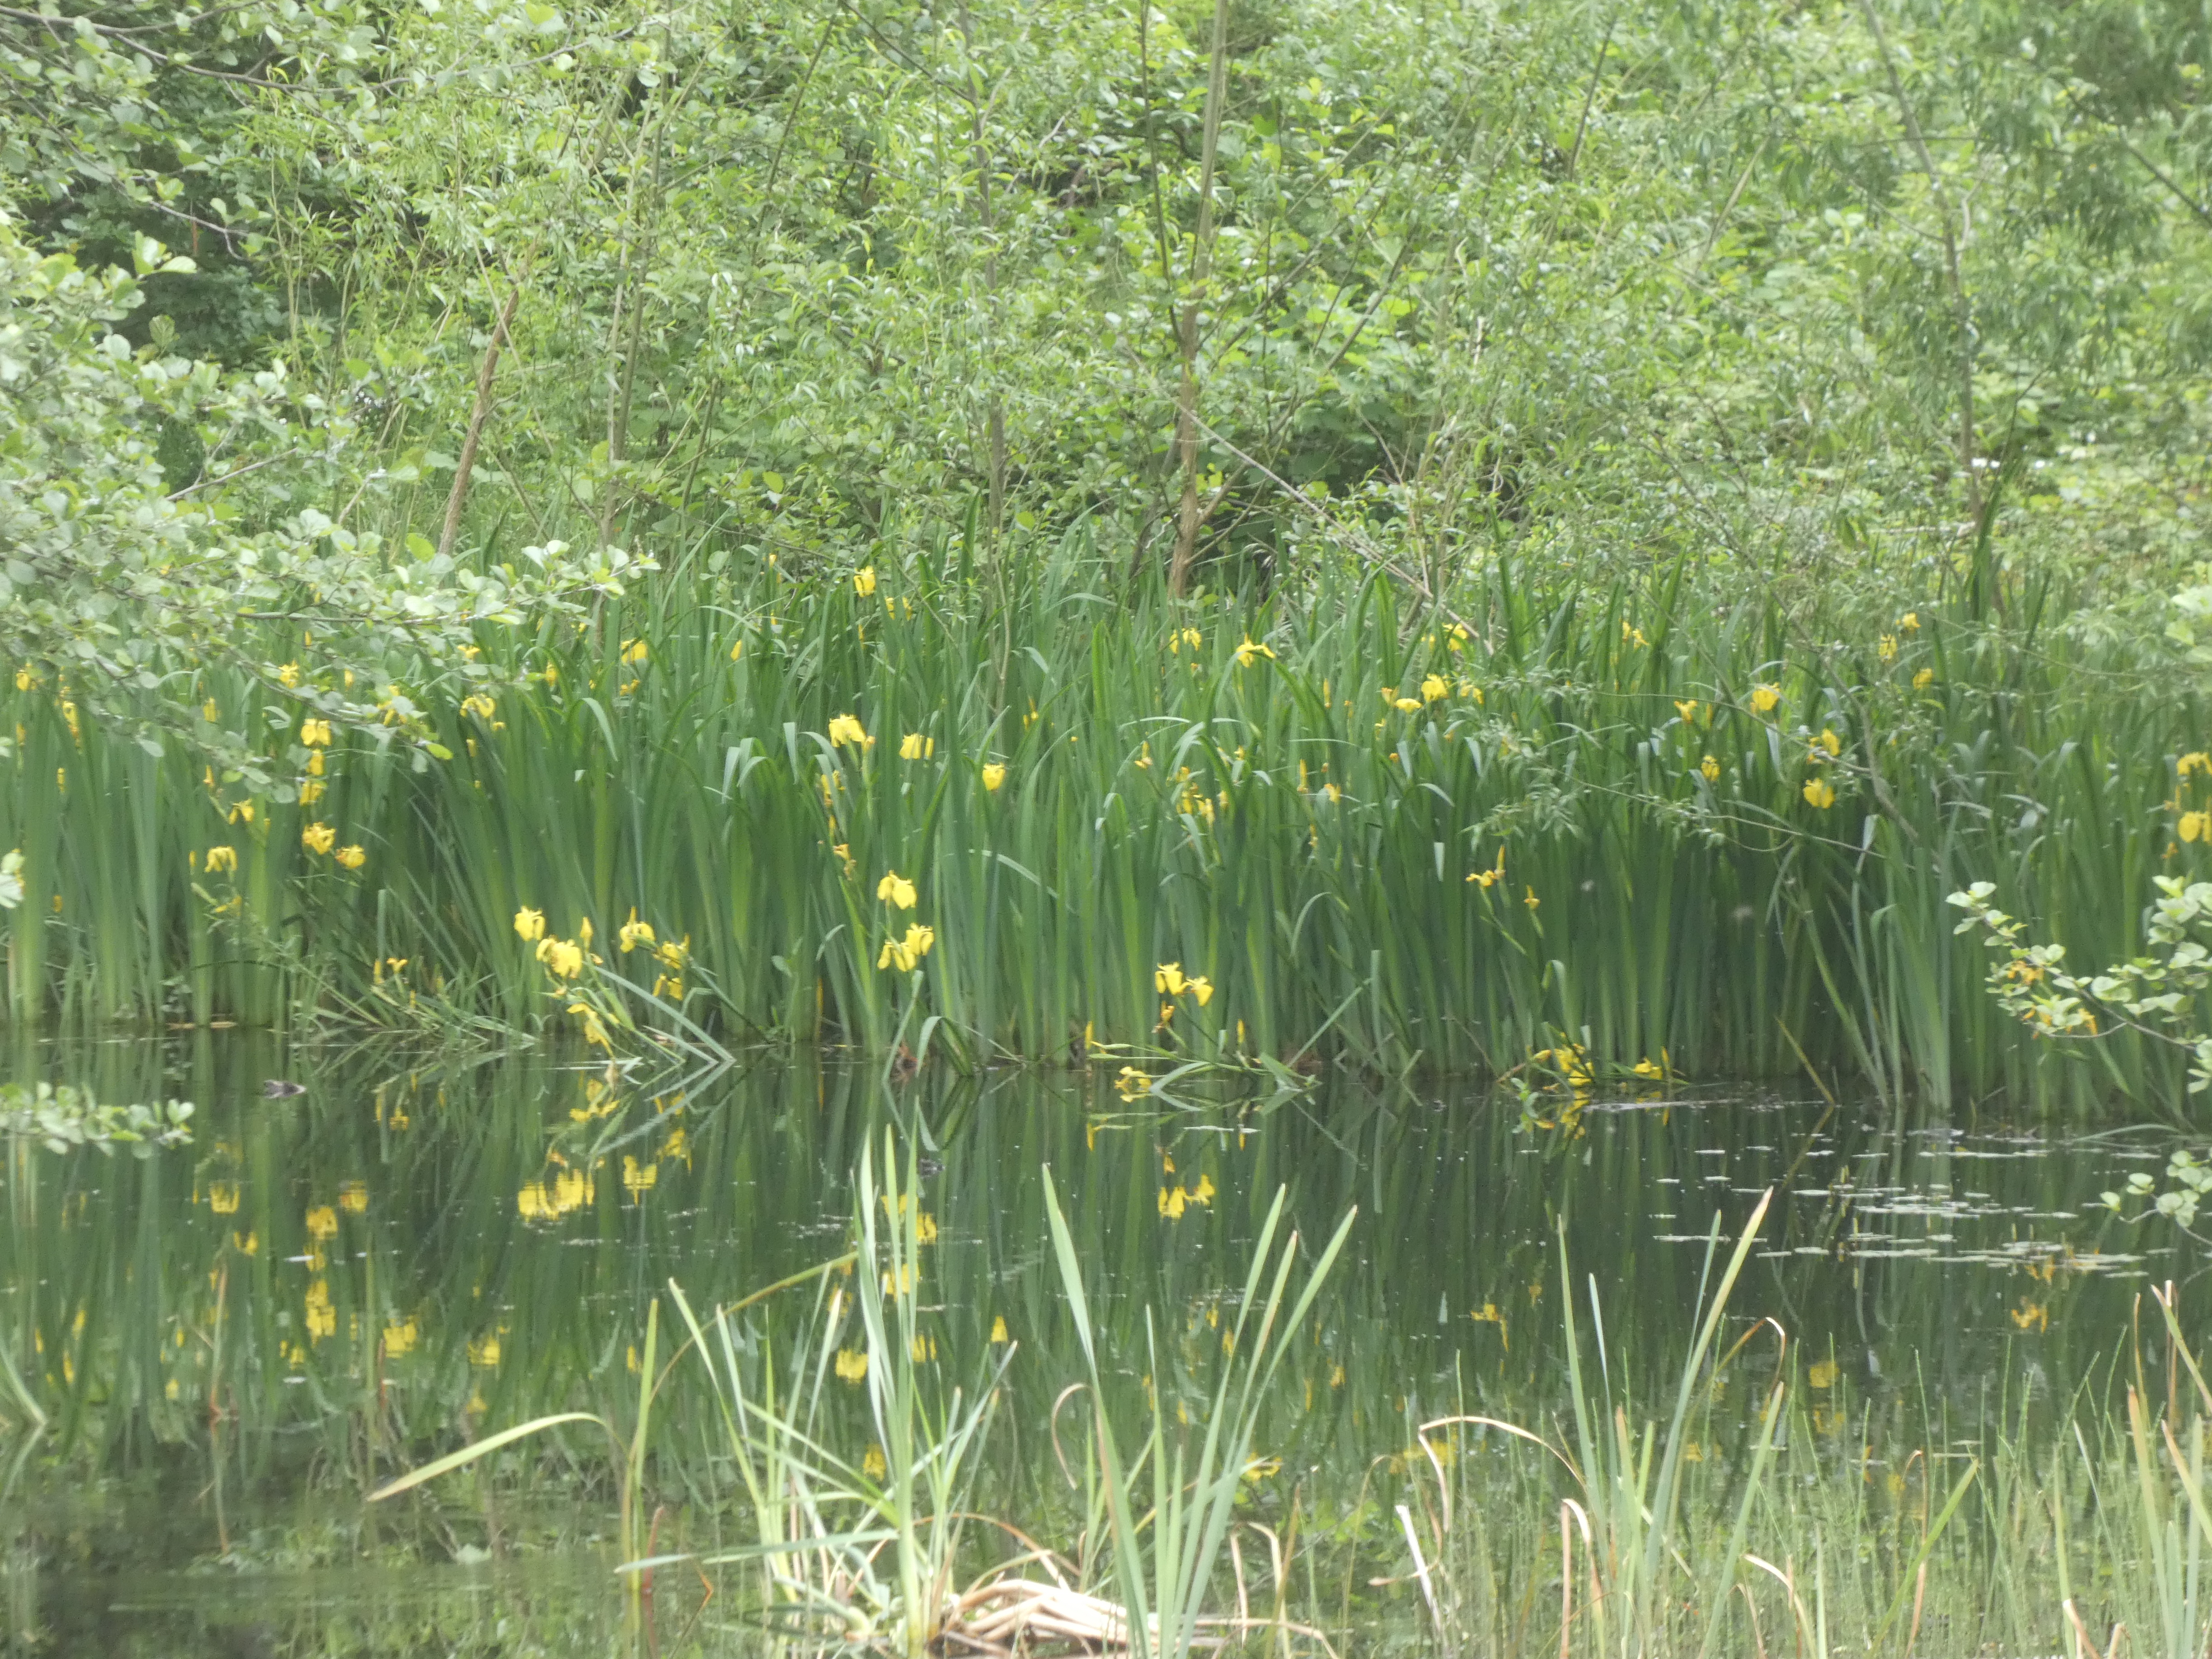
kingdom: Plantae
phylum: Tracheophyta
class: Liliopsida
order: Asparagales
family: Iridaceae
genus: Iris
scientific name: Iris pseudacorus
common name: Gul iris
